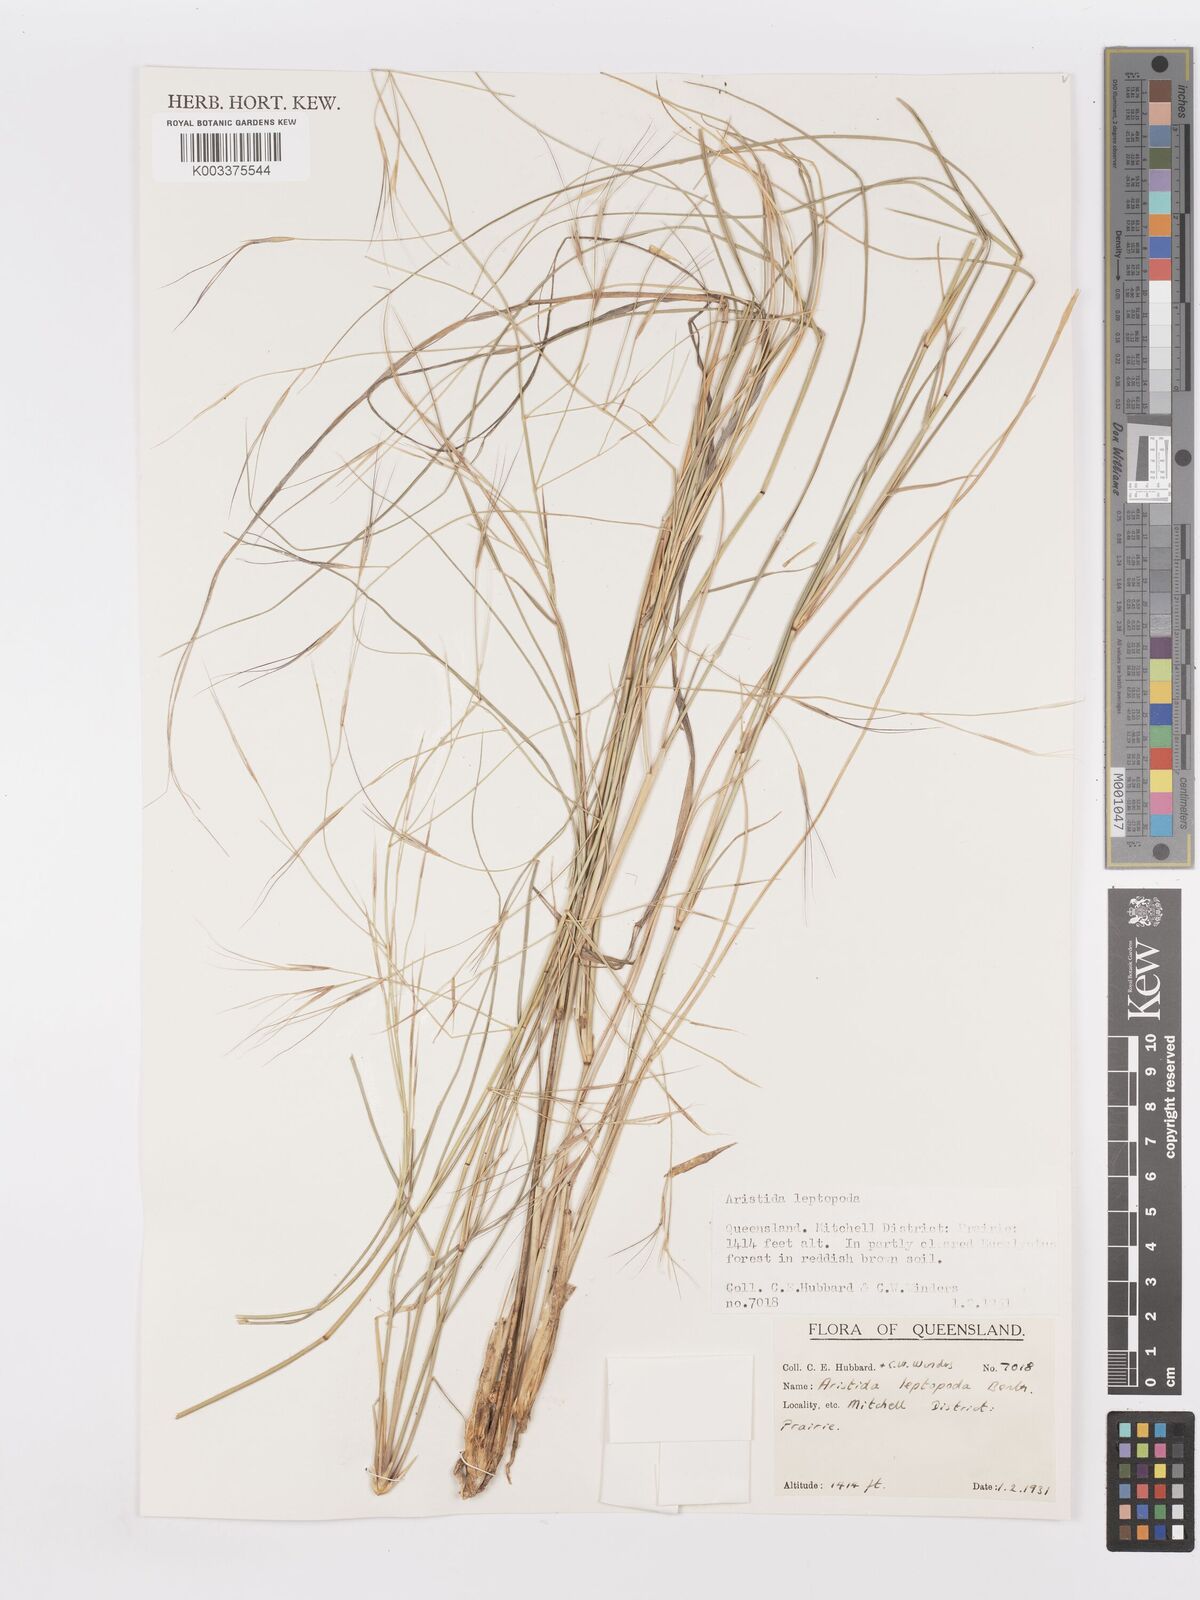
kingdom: Plantae
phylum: Tracheophyta
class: Liliopsida
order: Poales
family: Poaceae
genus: Aristida
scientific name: Aristida leptopoda
